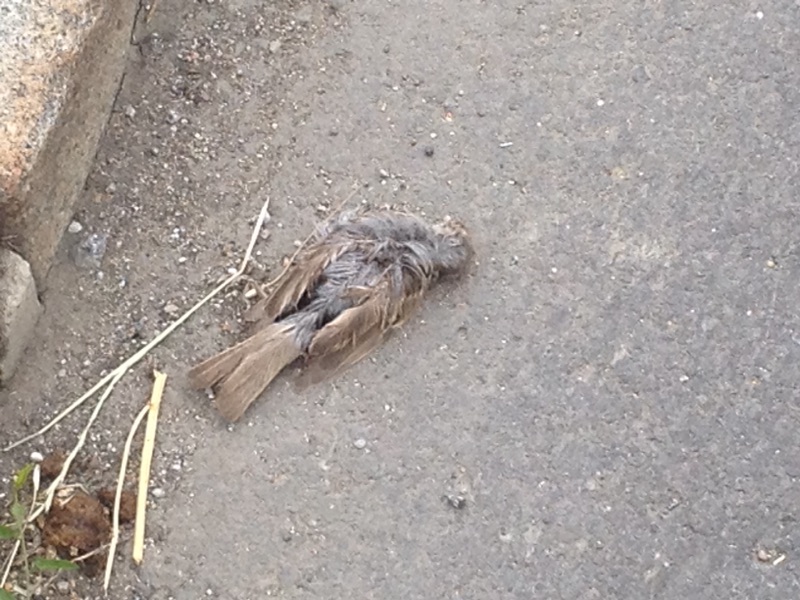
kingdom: Animalia
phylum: Chordata
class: Aves
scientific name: Aves
